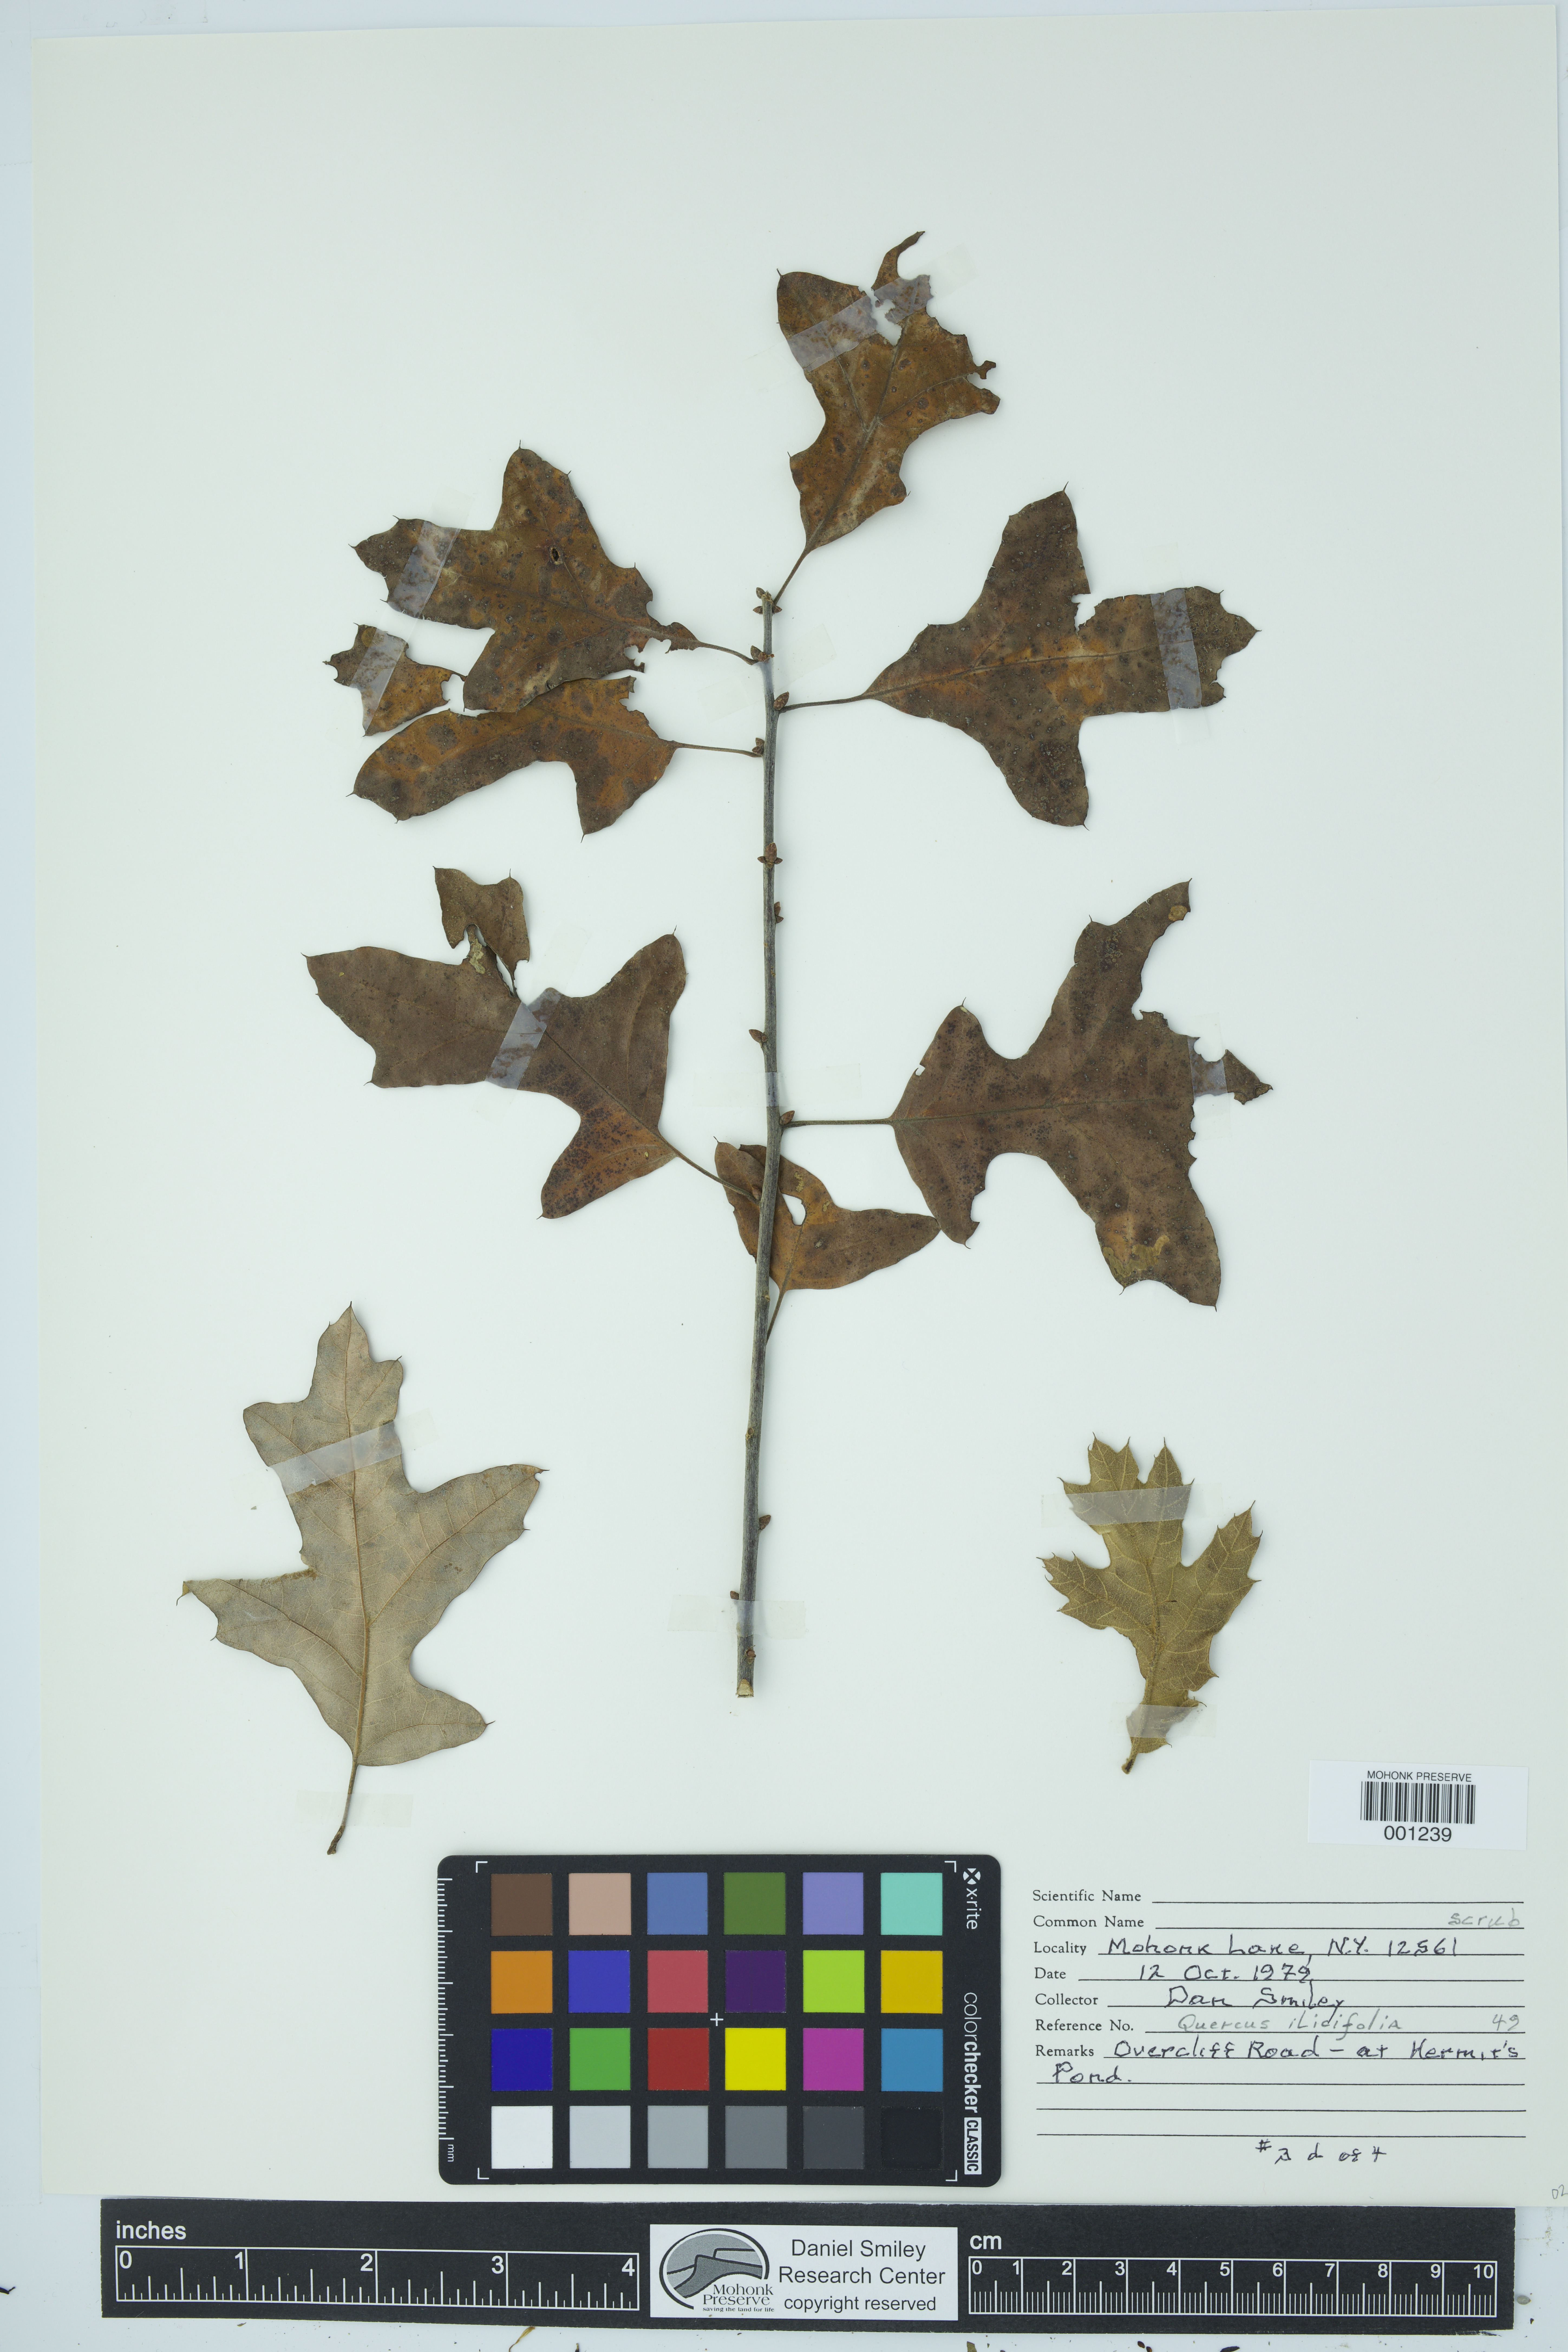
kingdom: Plantae
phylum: Tracheophyta
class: Magnoliopsida
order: Fagales
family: Fagaceae
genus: Quercus
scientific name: Quercus ilicifolia
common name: Bear oak
